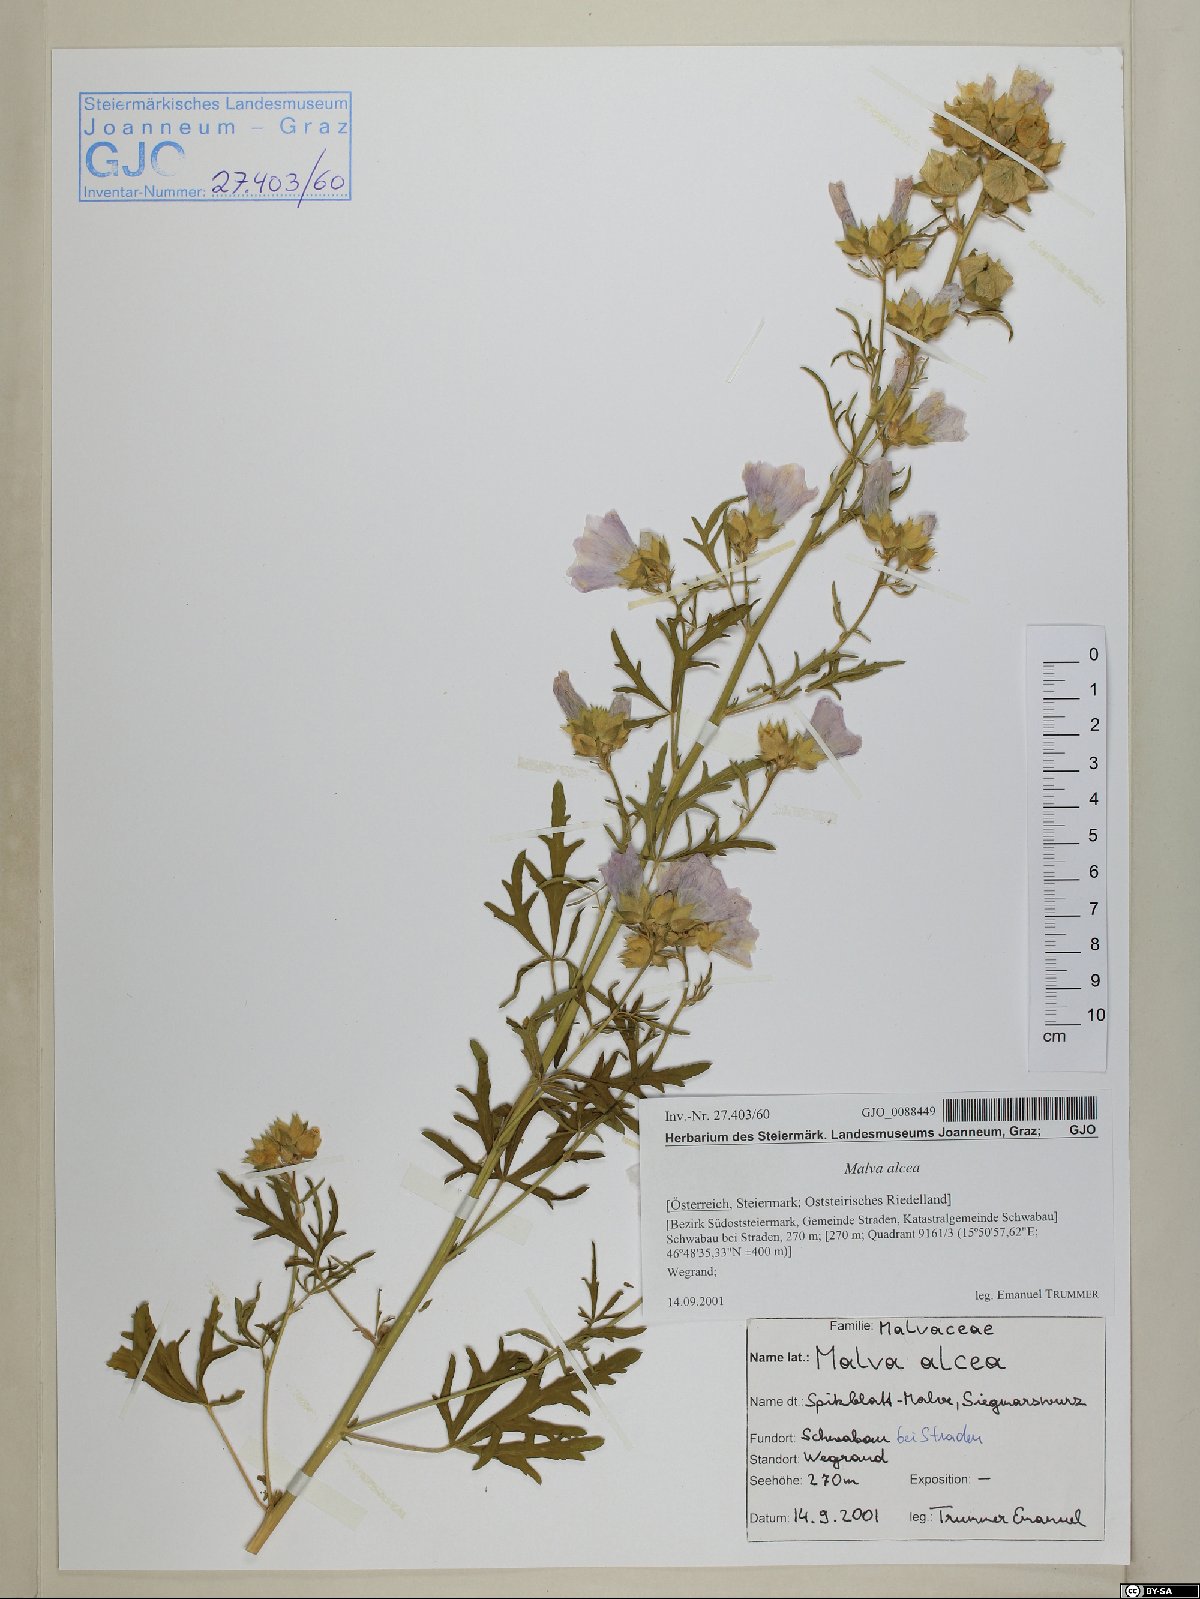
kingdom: Plantae
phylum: Tracheophyta
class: Magnoliopsida
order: Malvales
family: Malvaceae
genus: Malva
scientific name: Malva alcea
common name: Greater musk-mallow
